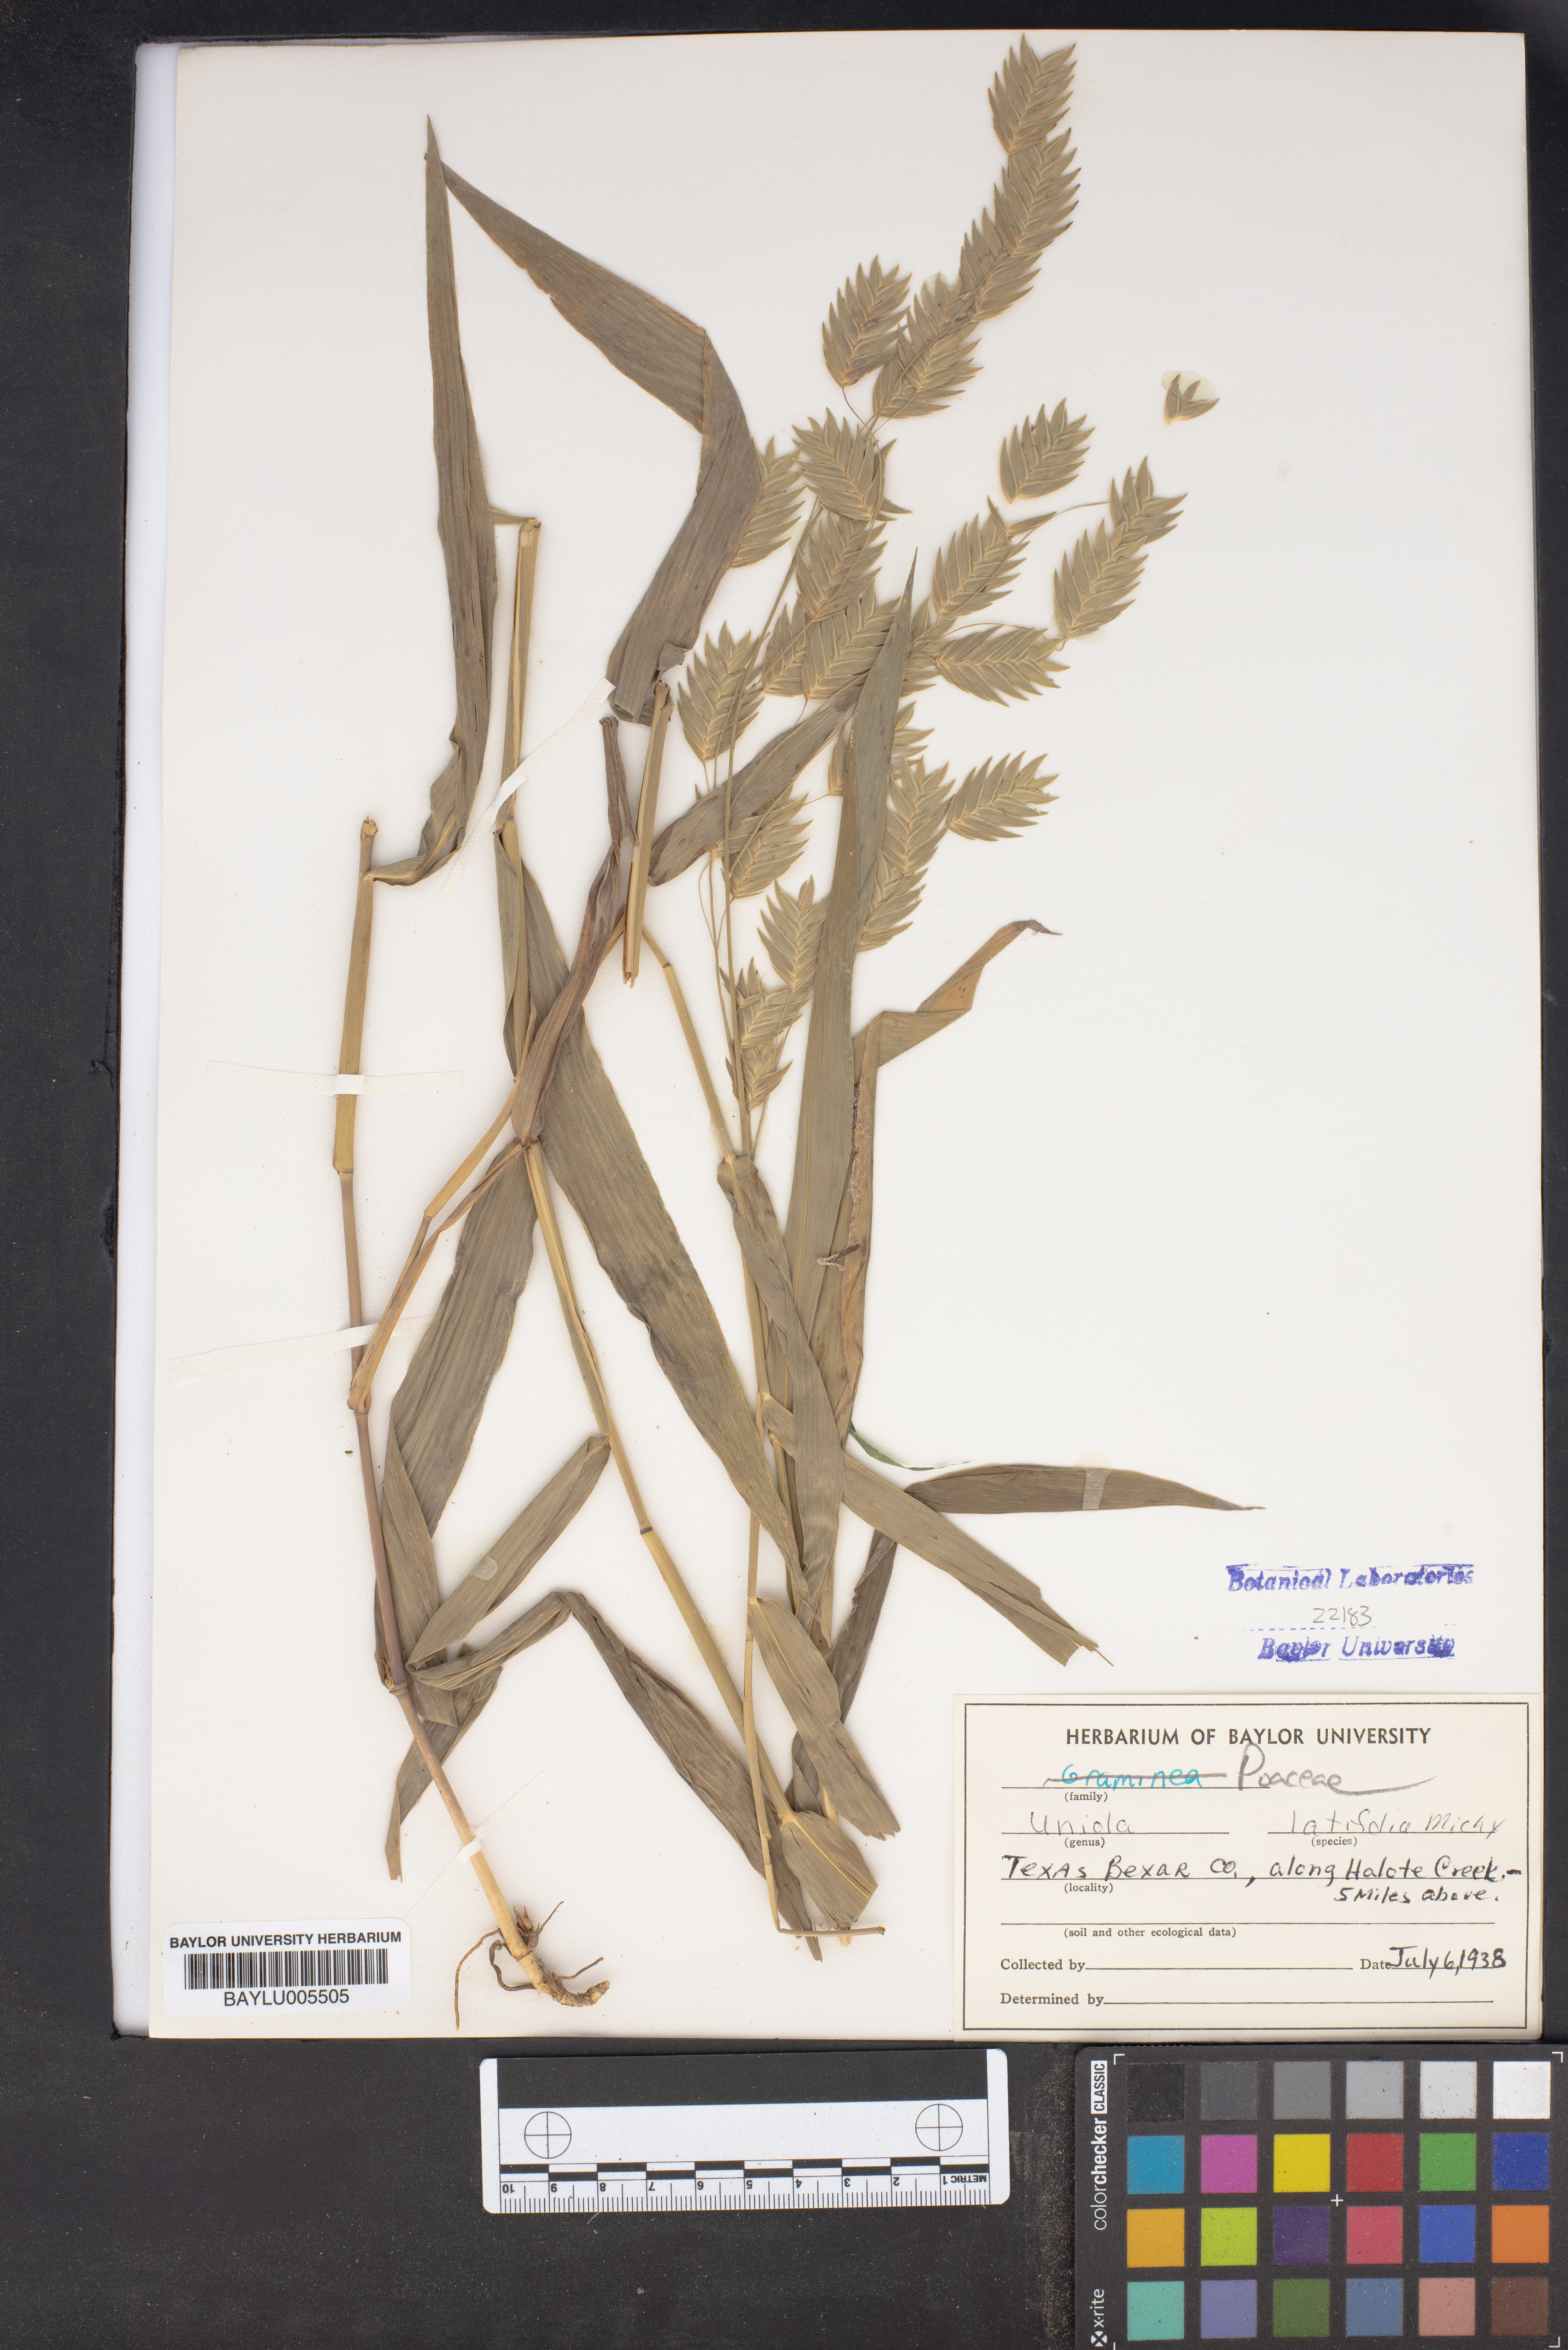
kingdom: Plantae
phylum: Tracheophyta
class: Liliopsida
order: Poales
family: Poaceae
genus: Chasmanthium
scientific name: Chasmanthium latifolium
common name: Broad-leaved chasmanthium
